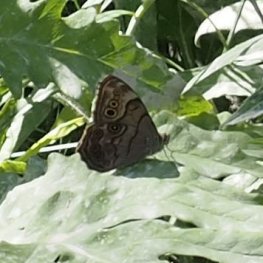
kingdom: Animalia
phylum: Arthropoda
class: Insecta
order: Lepidoptera
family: Nymphalidae
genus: Lethe
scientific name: Lethe anthedon
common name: Northern Pearly-Eye
